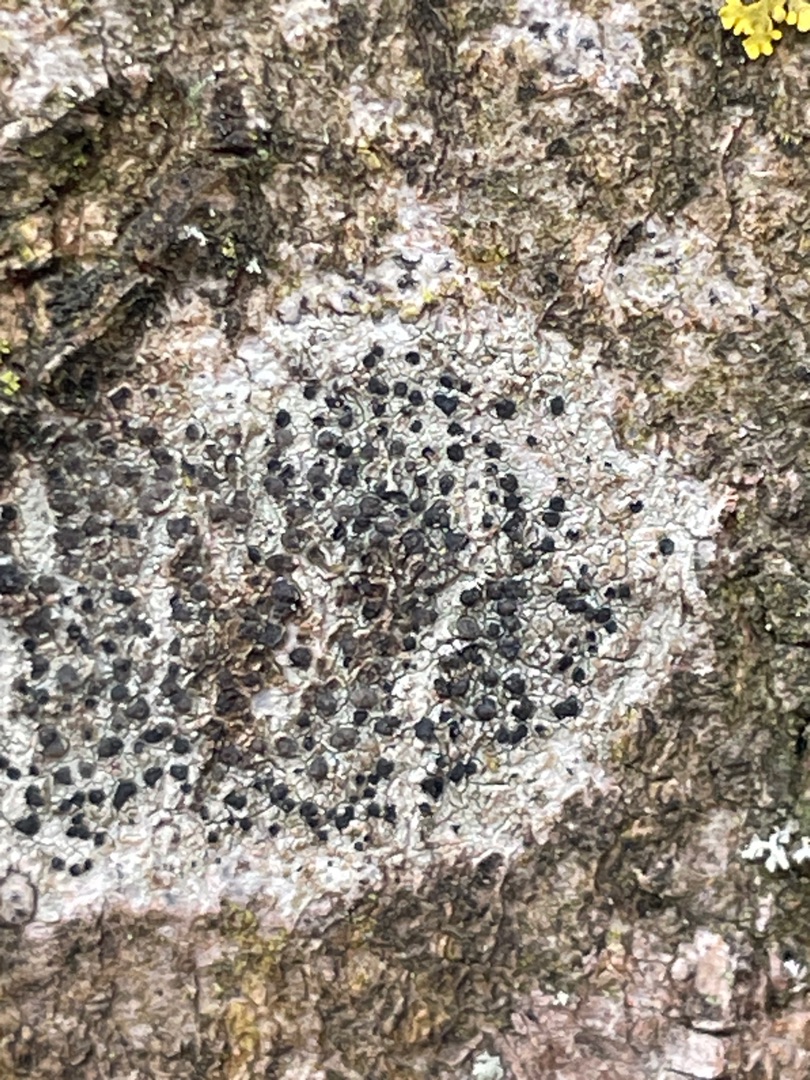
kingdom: Fungi
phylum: Ascomycota
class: Lecanoromycetes
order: Lecanorales
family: Lecanoraceae
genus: Lecidella
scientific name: Lecidella elaeochroma
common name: Grågrøn skivelav
